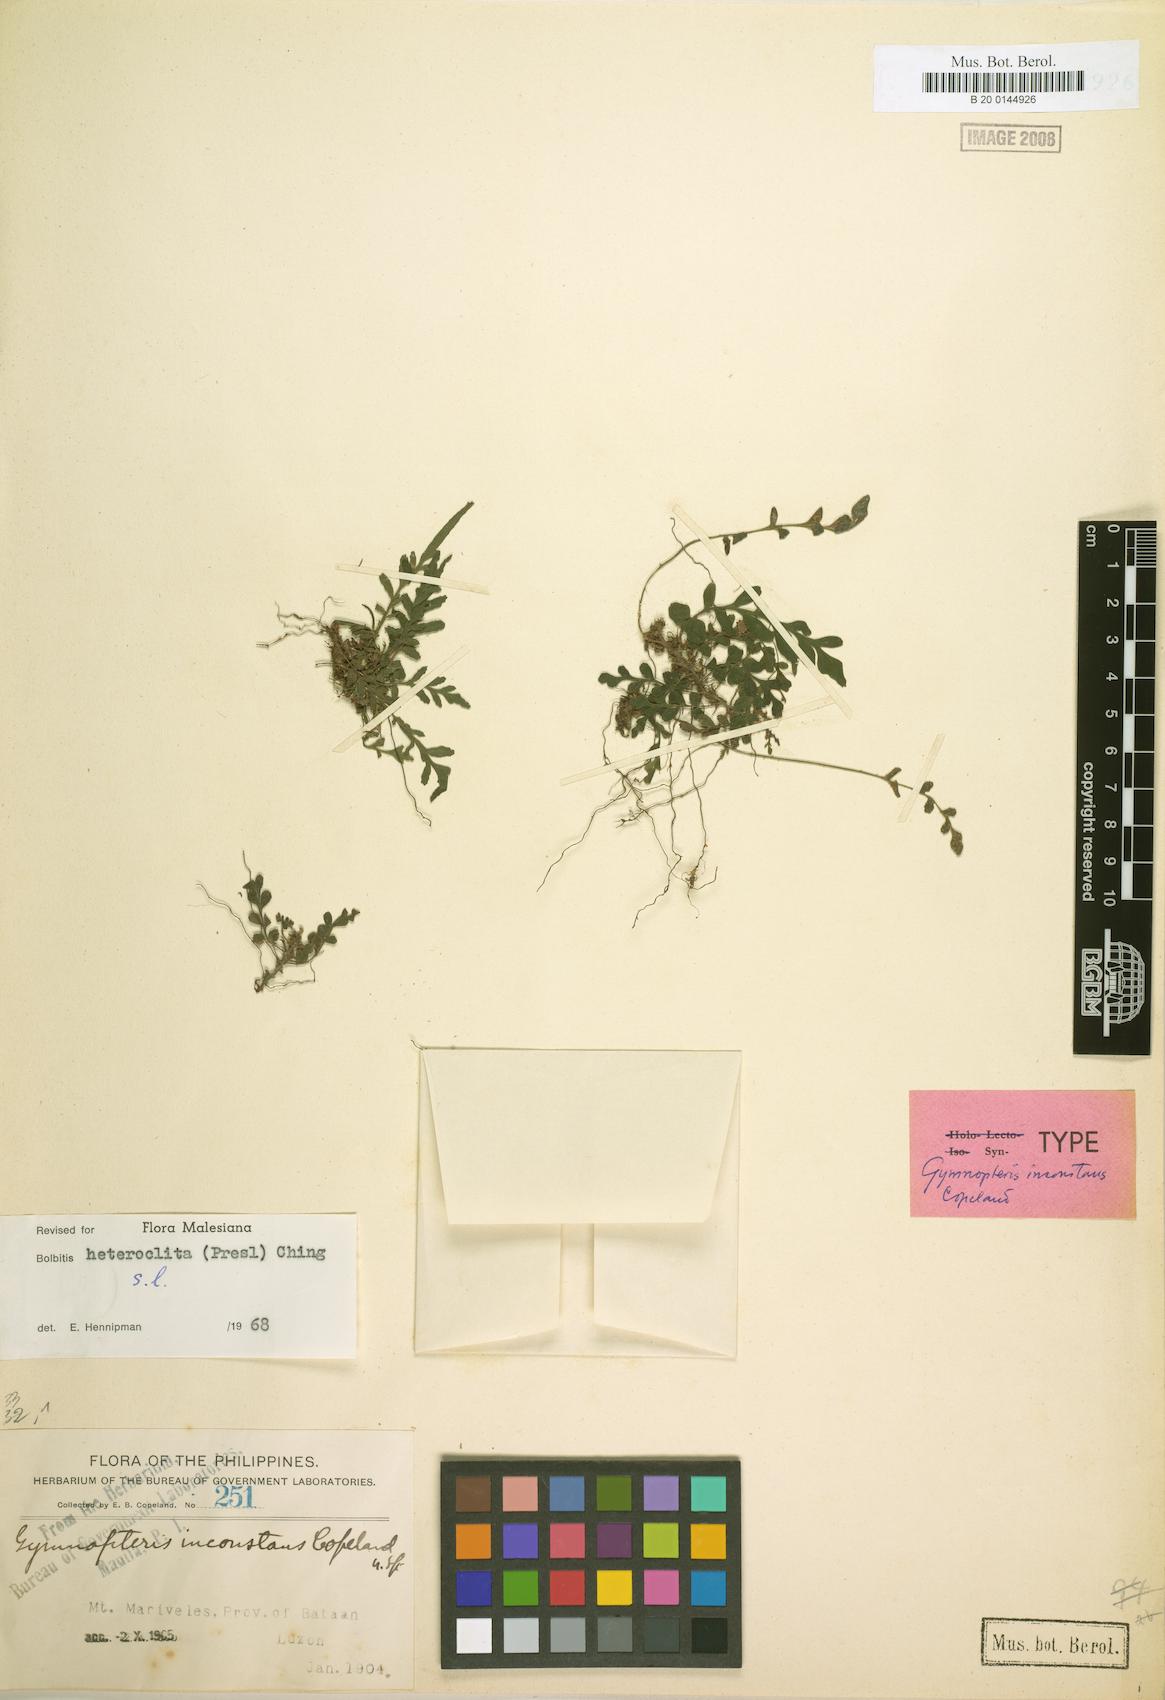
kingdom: Plantae
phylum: Tracheophyta
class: Polypodiopsida
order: Polypodiales
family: Dryopteridaceae
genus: Bolbitis
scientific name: Bolbitis heteroclita
